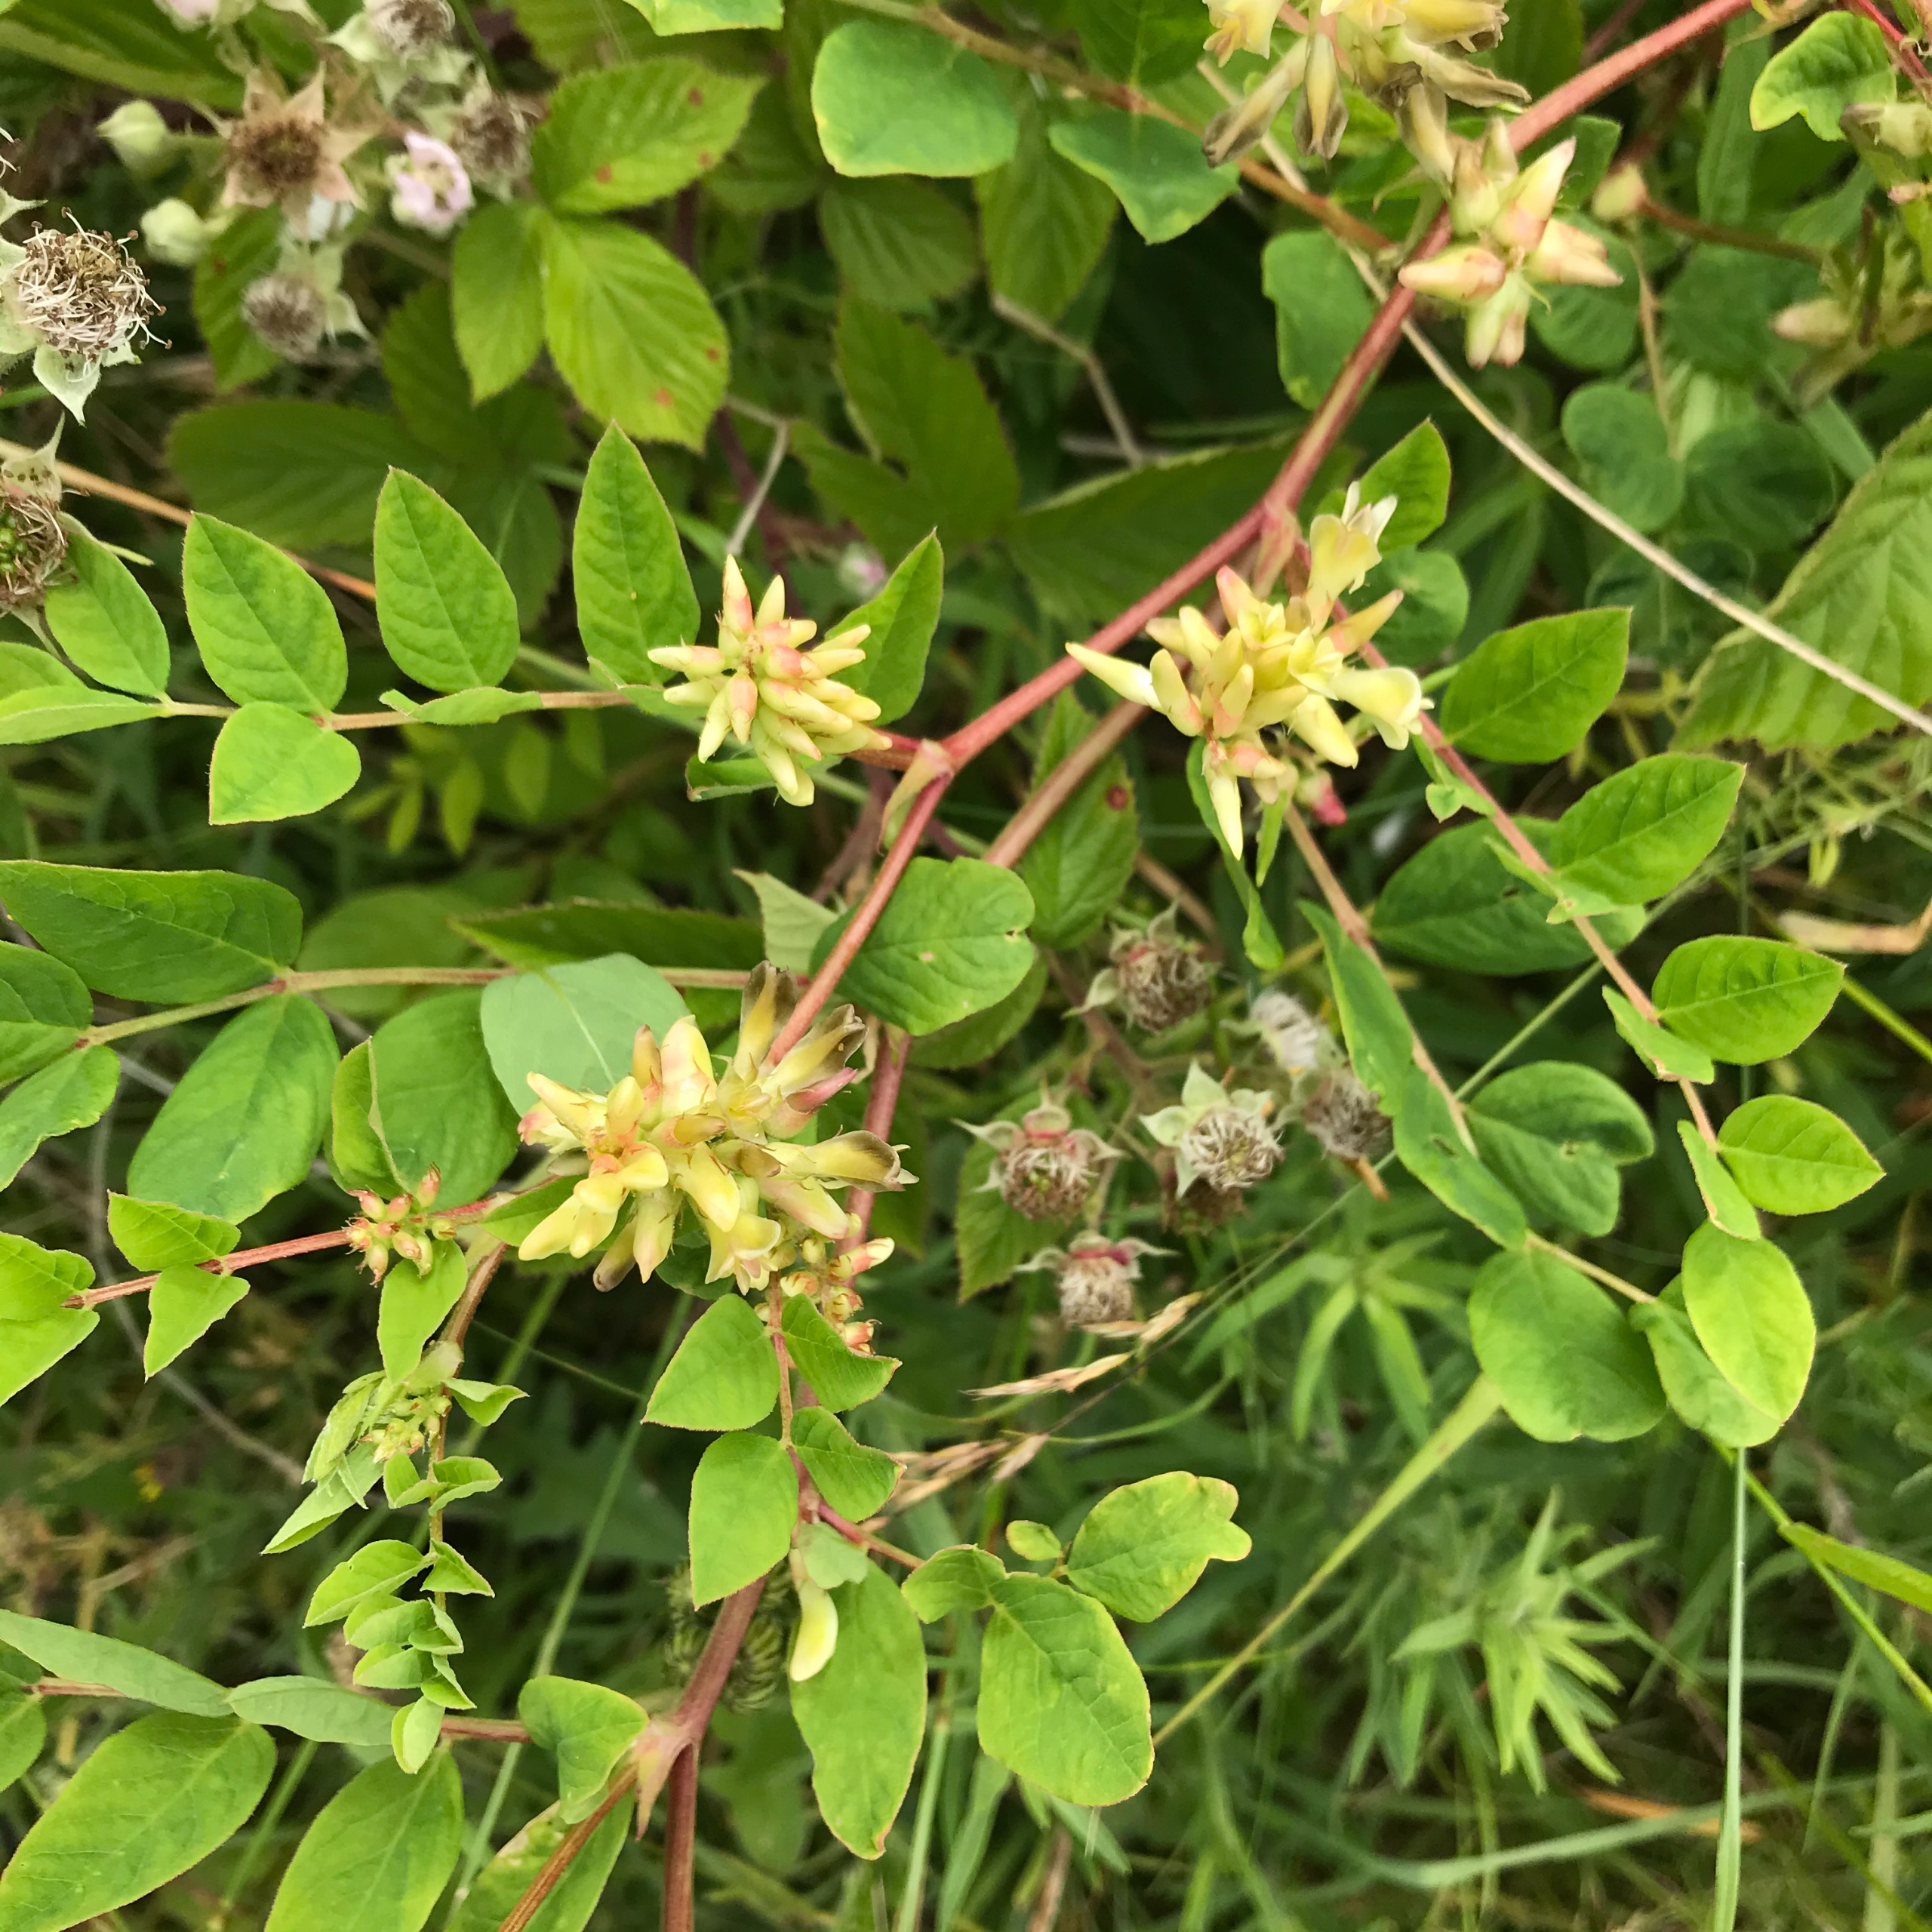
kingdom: Plantae
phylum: Tracheophyta
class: Magnoliopsida
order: Fabales
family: Fabaceae
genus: Astragalus
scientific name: Astragalus glycyphyllos
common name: Sød astragel
